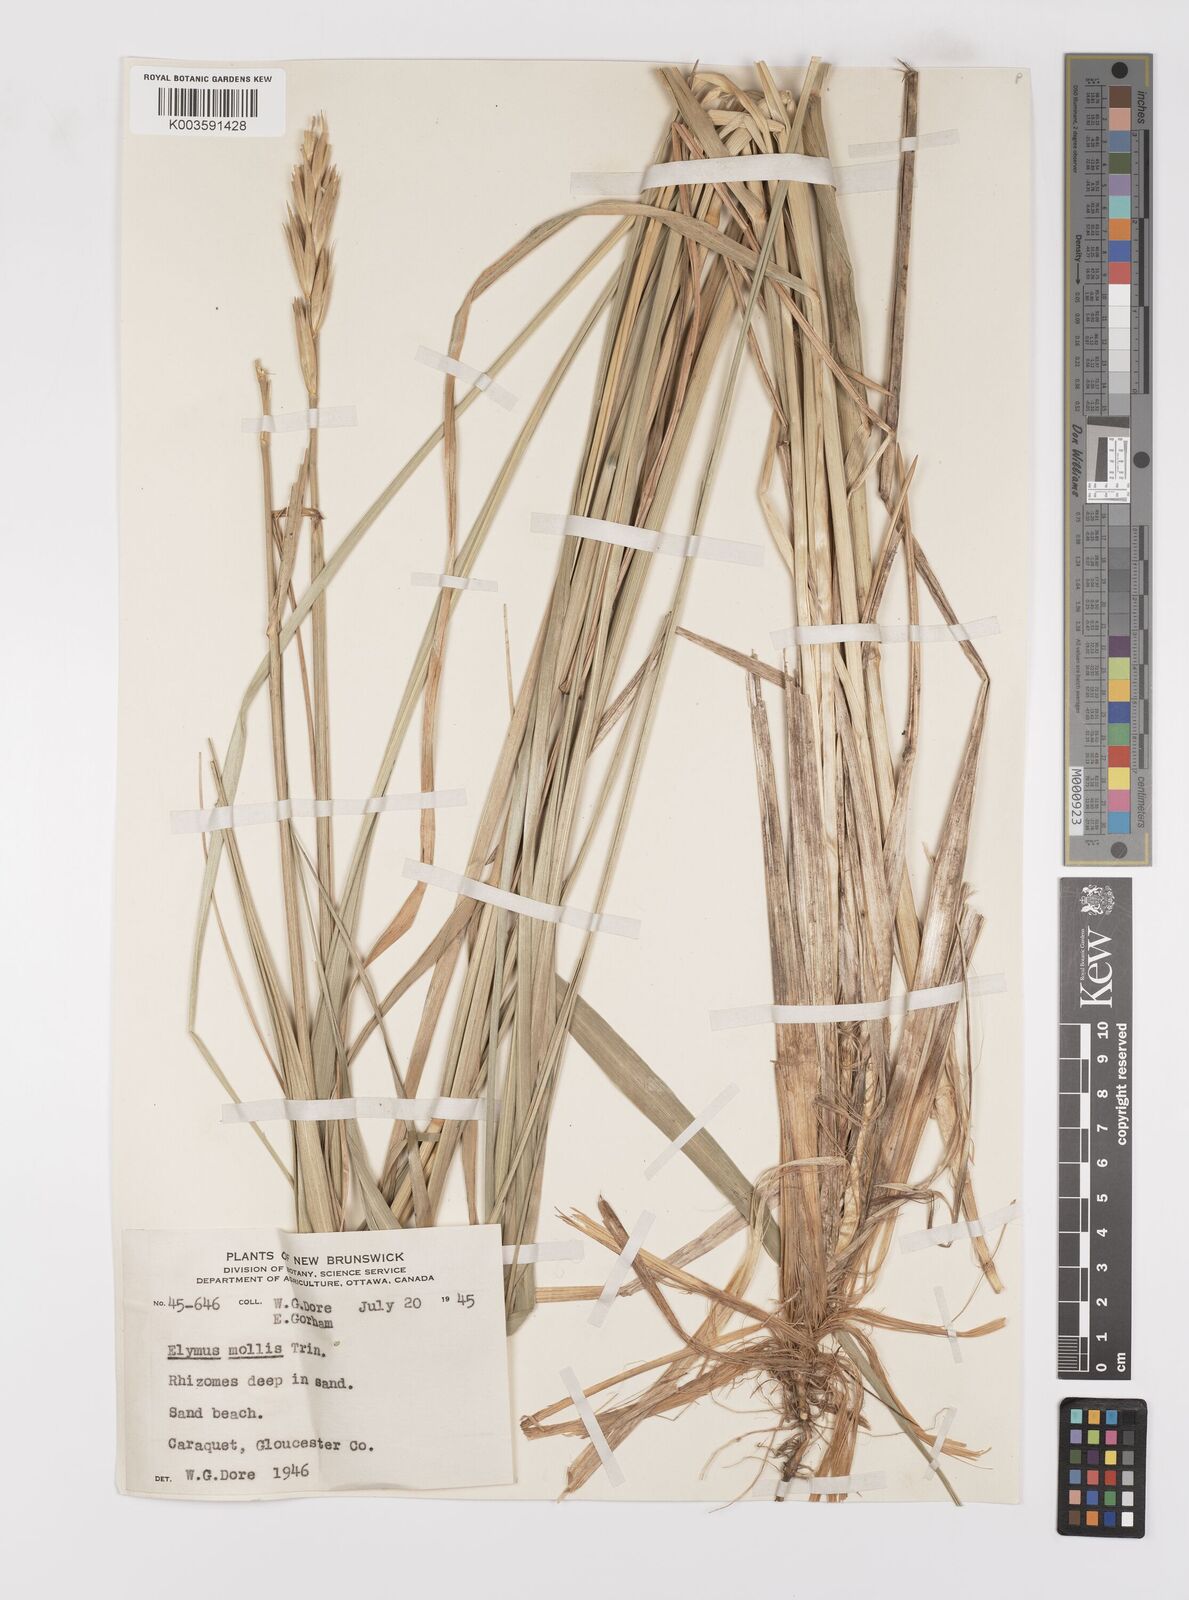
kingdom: Plantae
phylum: Tracheophyta
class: Liliopsida
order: Poales
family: Poaceae
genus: Leymus
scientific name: Leymus mollis
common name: American dune grass
